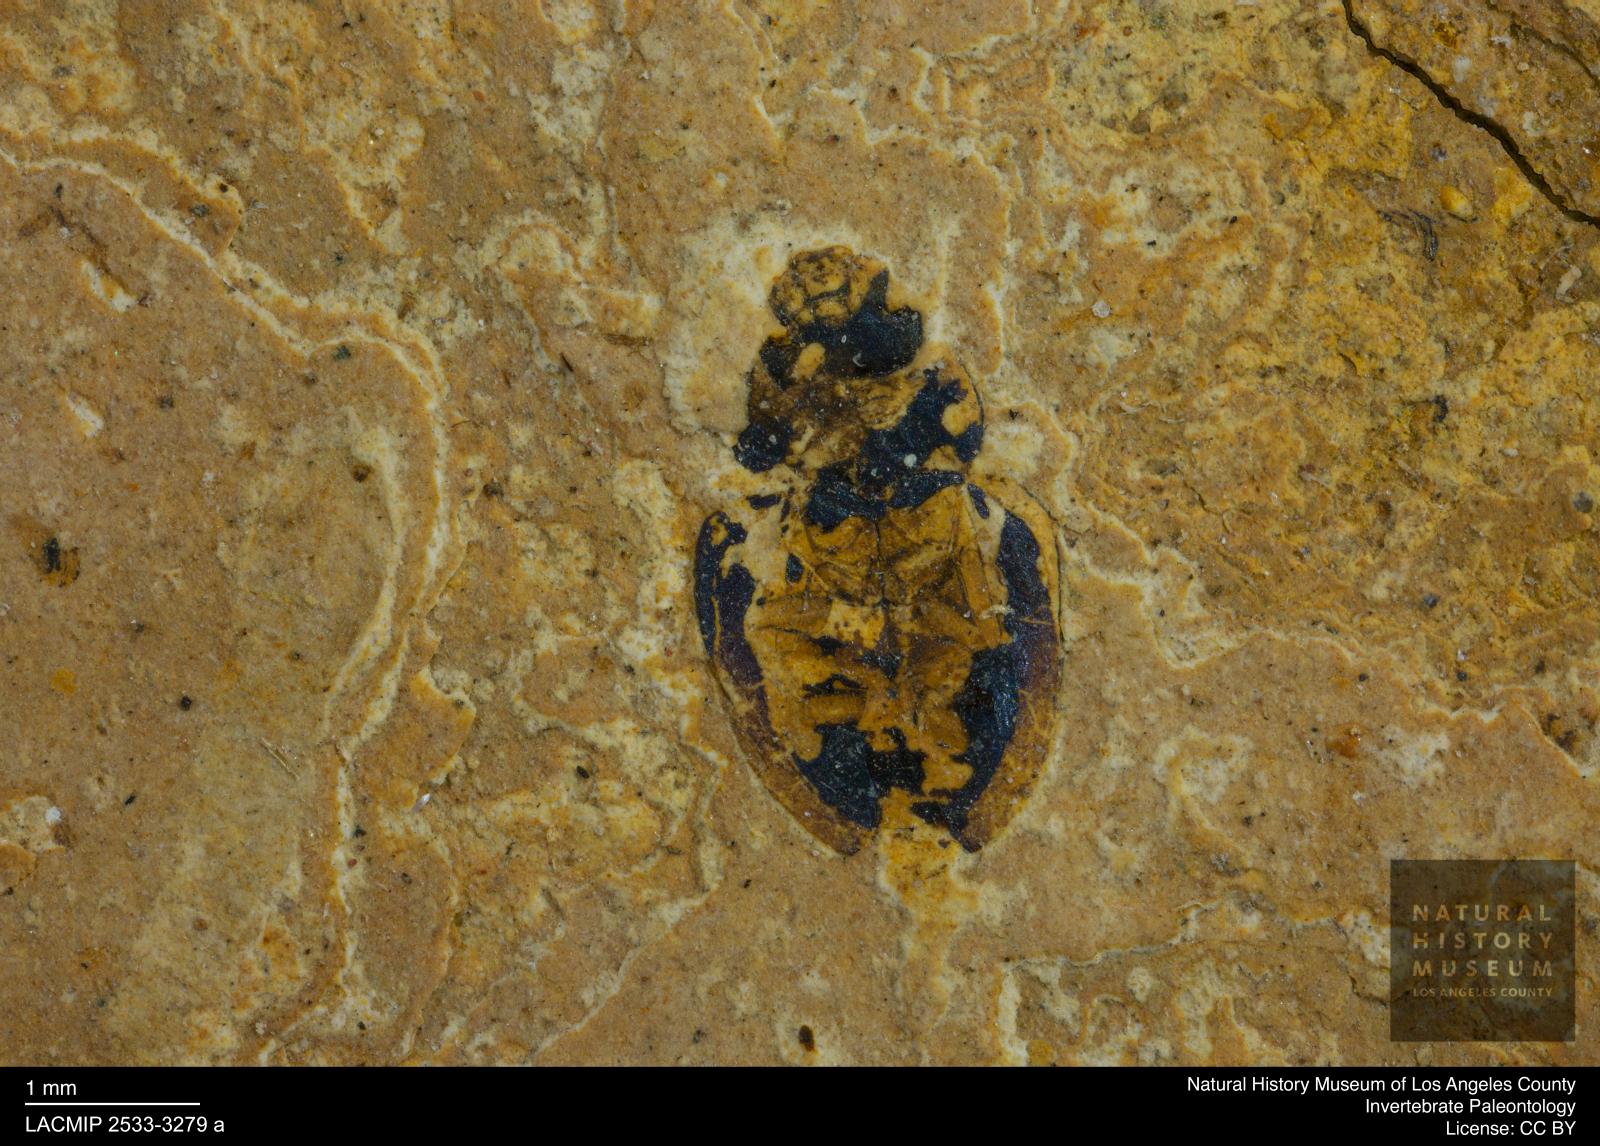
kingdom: Animalia
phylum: Arthropoda
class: Insecta
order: Coleoptera
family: Hydrophilidae
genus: Paracymus
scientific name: Paracymus excitatus
